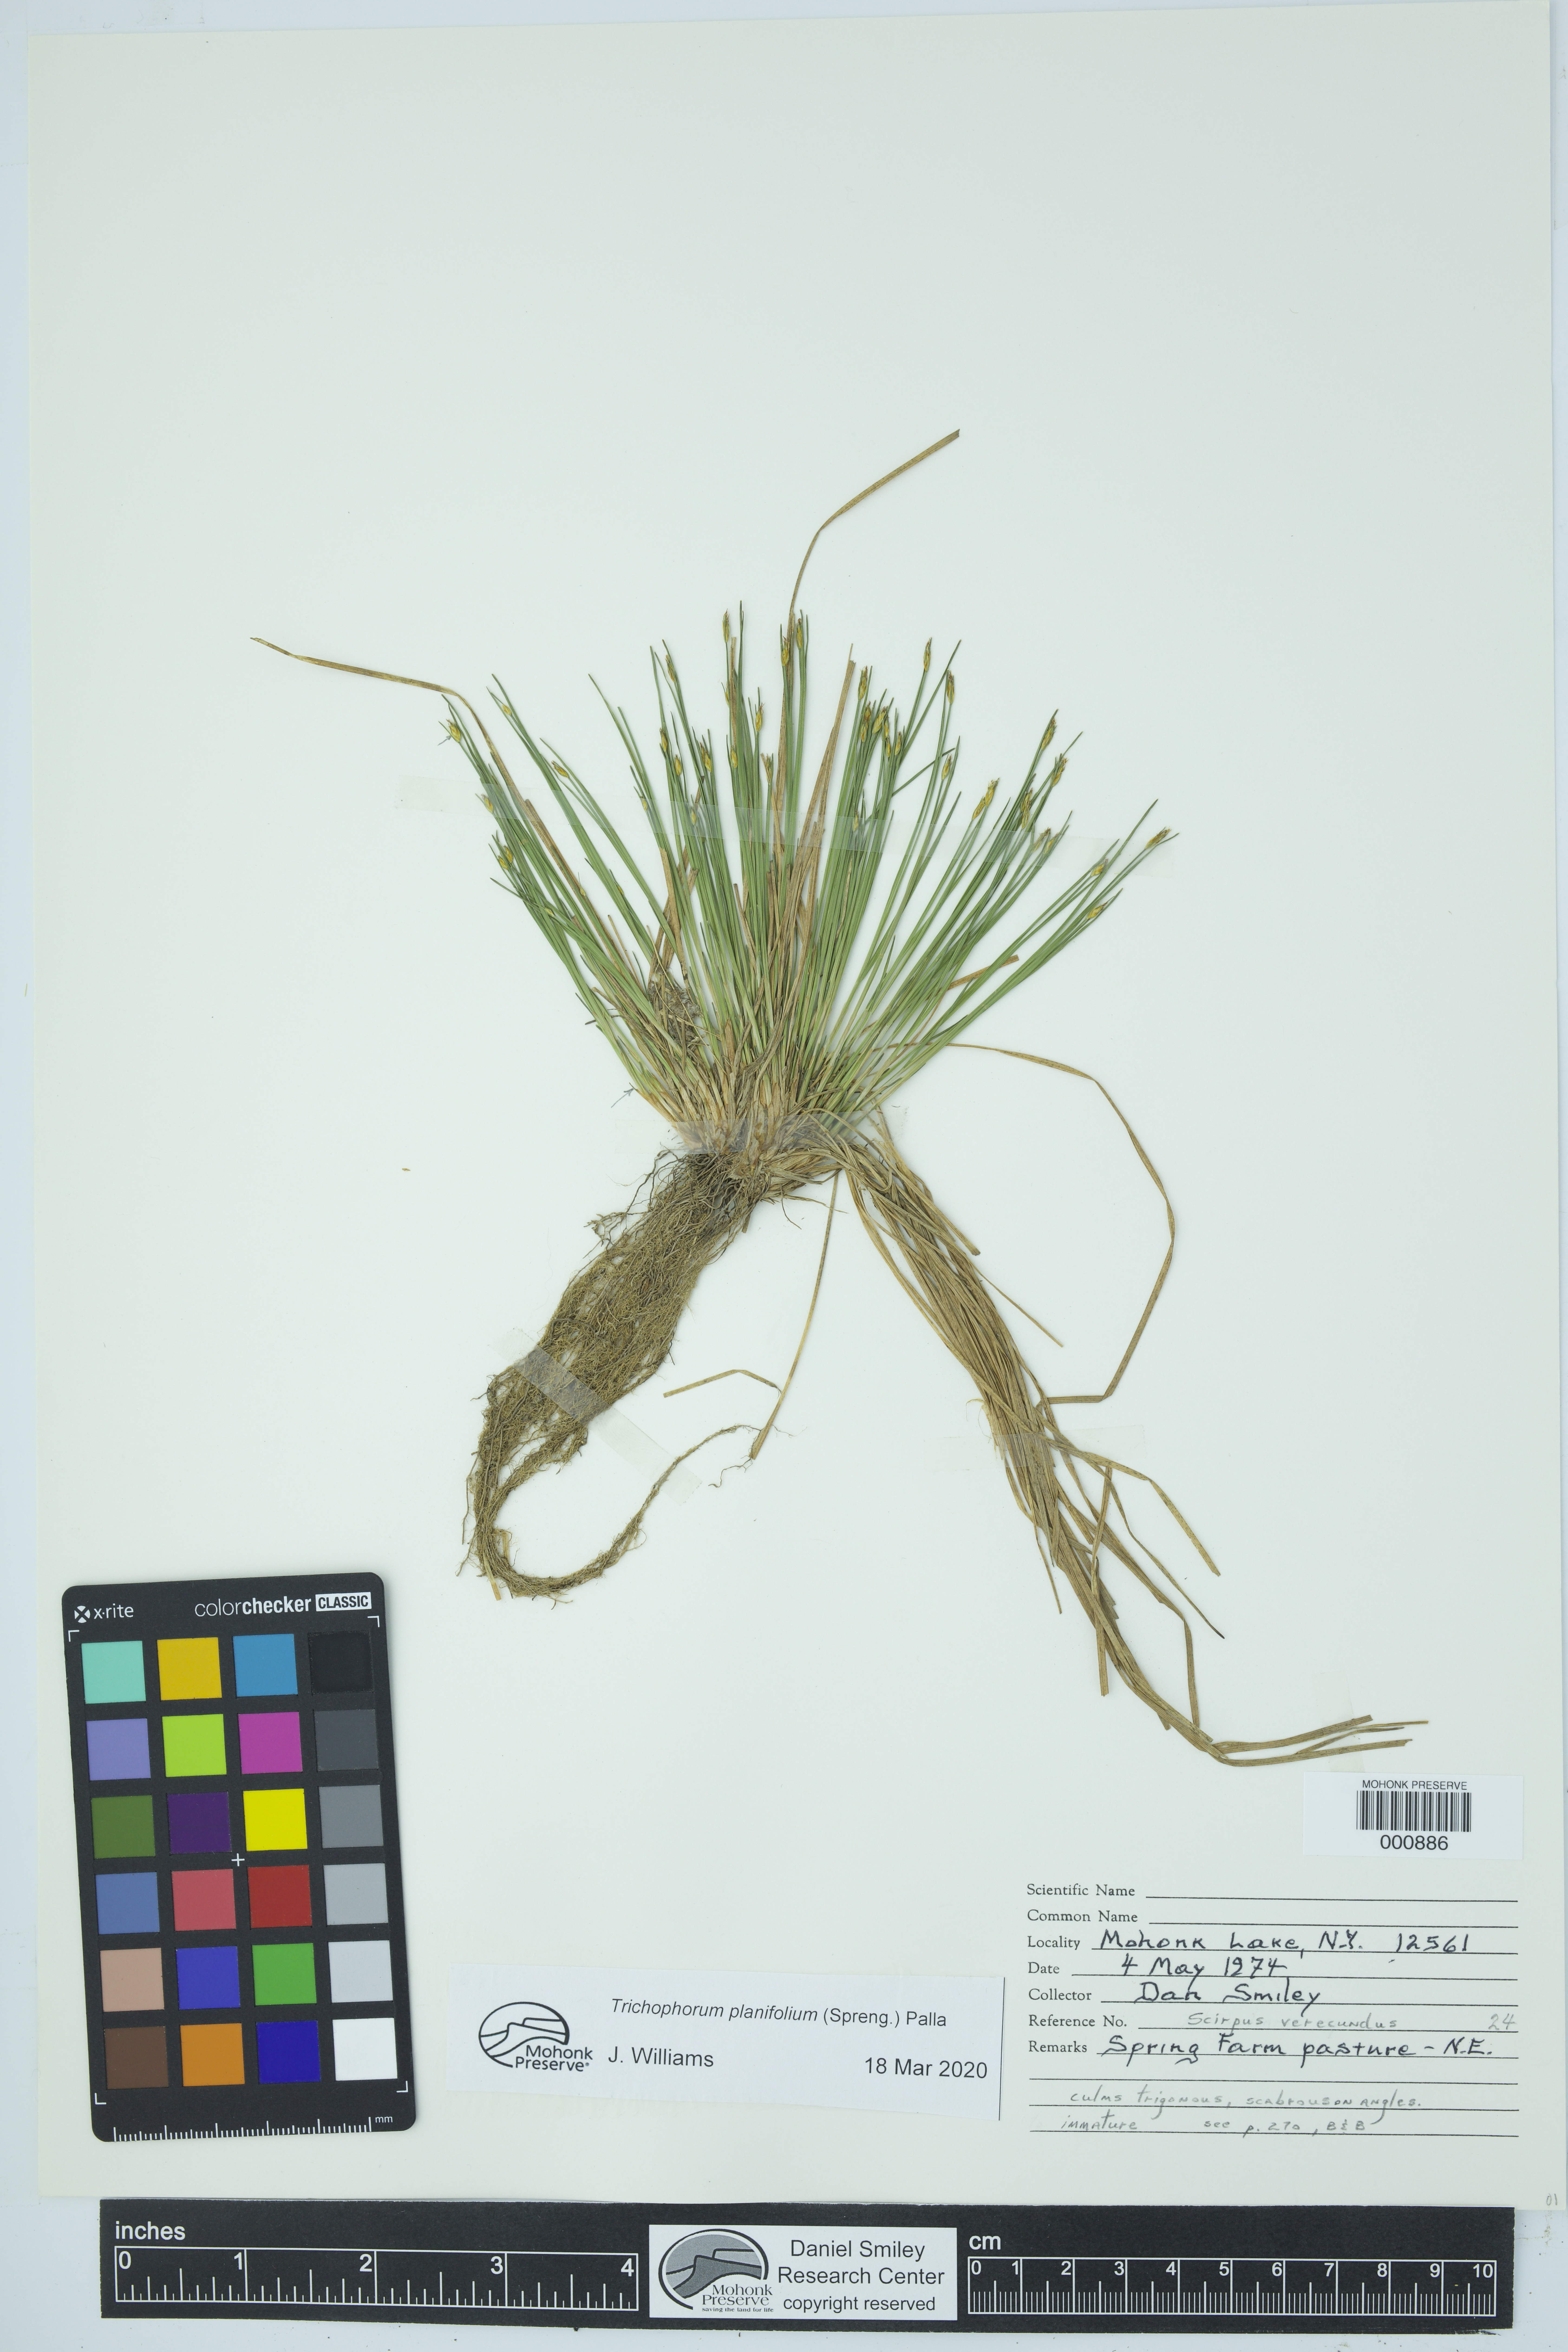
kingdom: Plantae
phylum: Tracheophyta
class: Liliopsida
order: Poales
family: Cyperaceae
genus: Trichophorum
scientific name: Trichophorum planifolium
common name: Bashful bulrush
